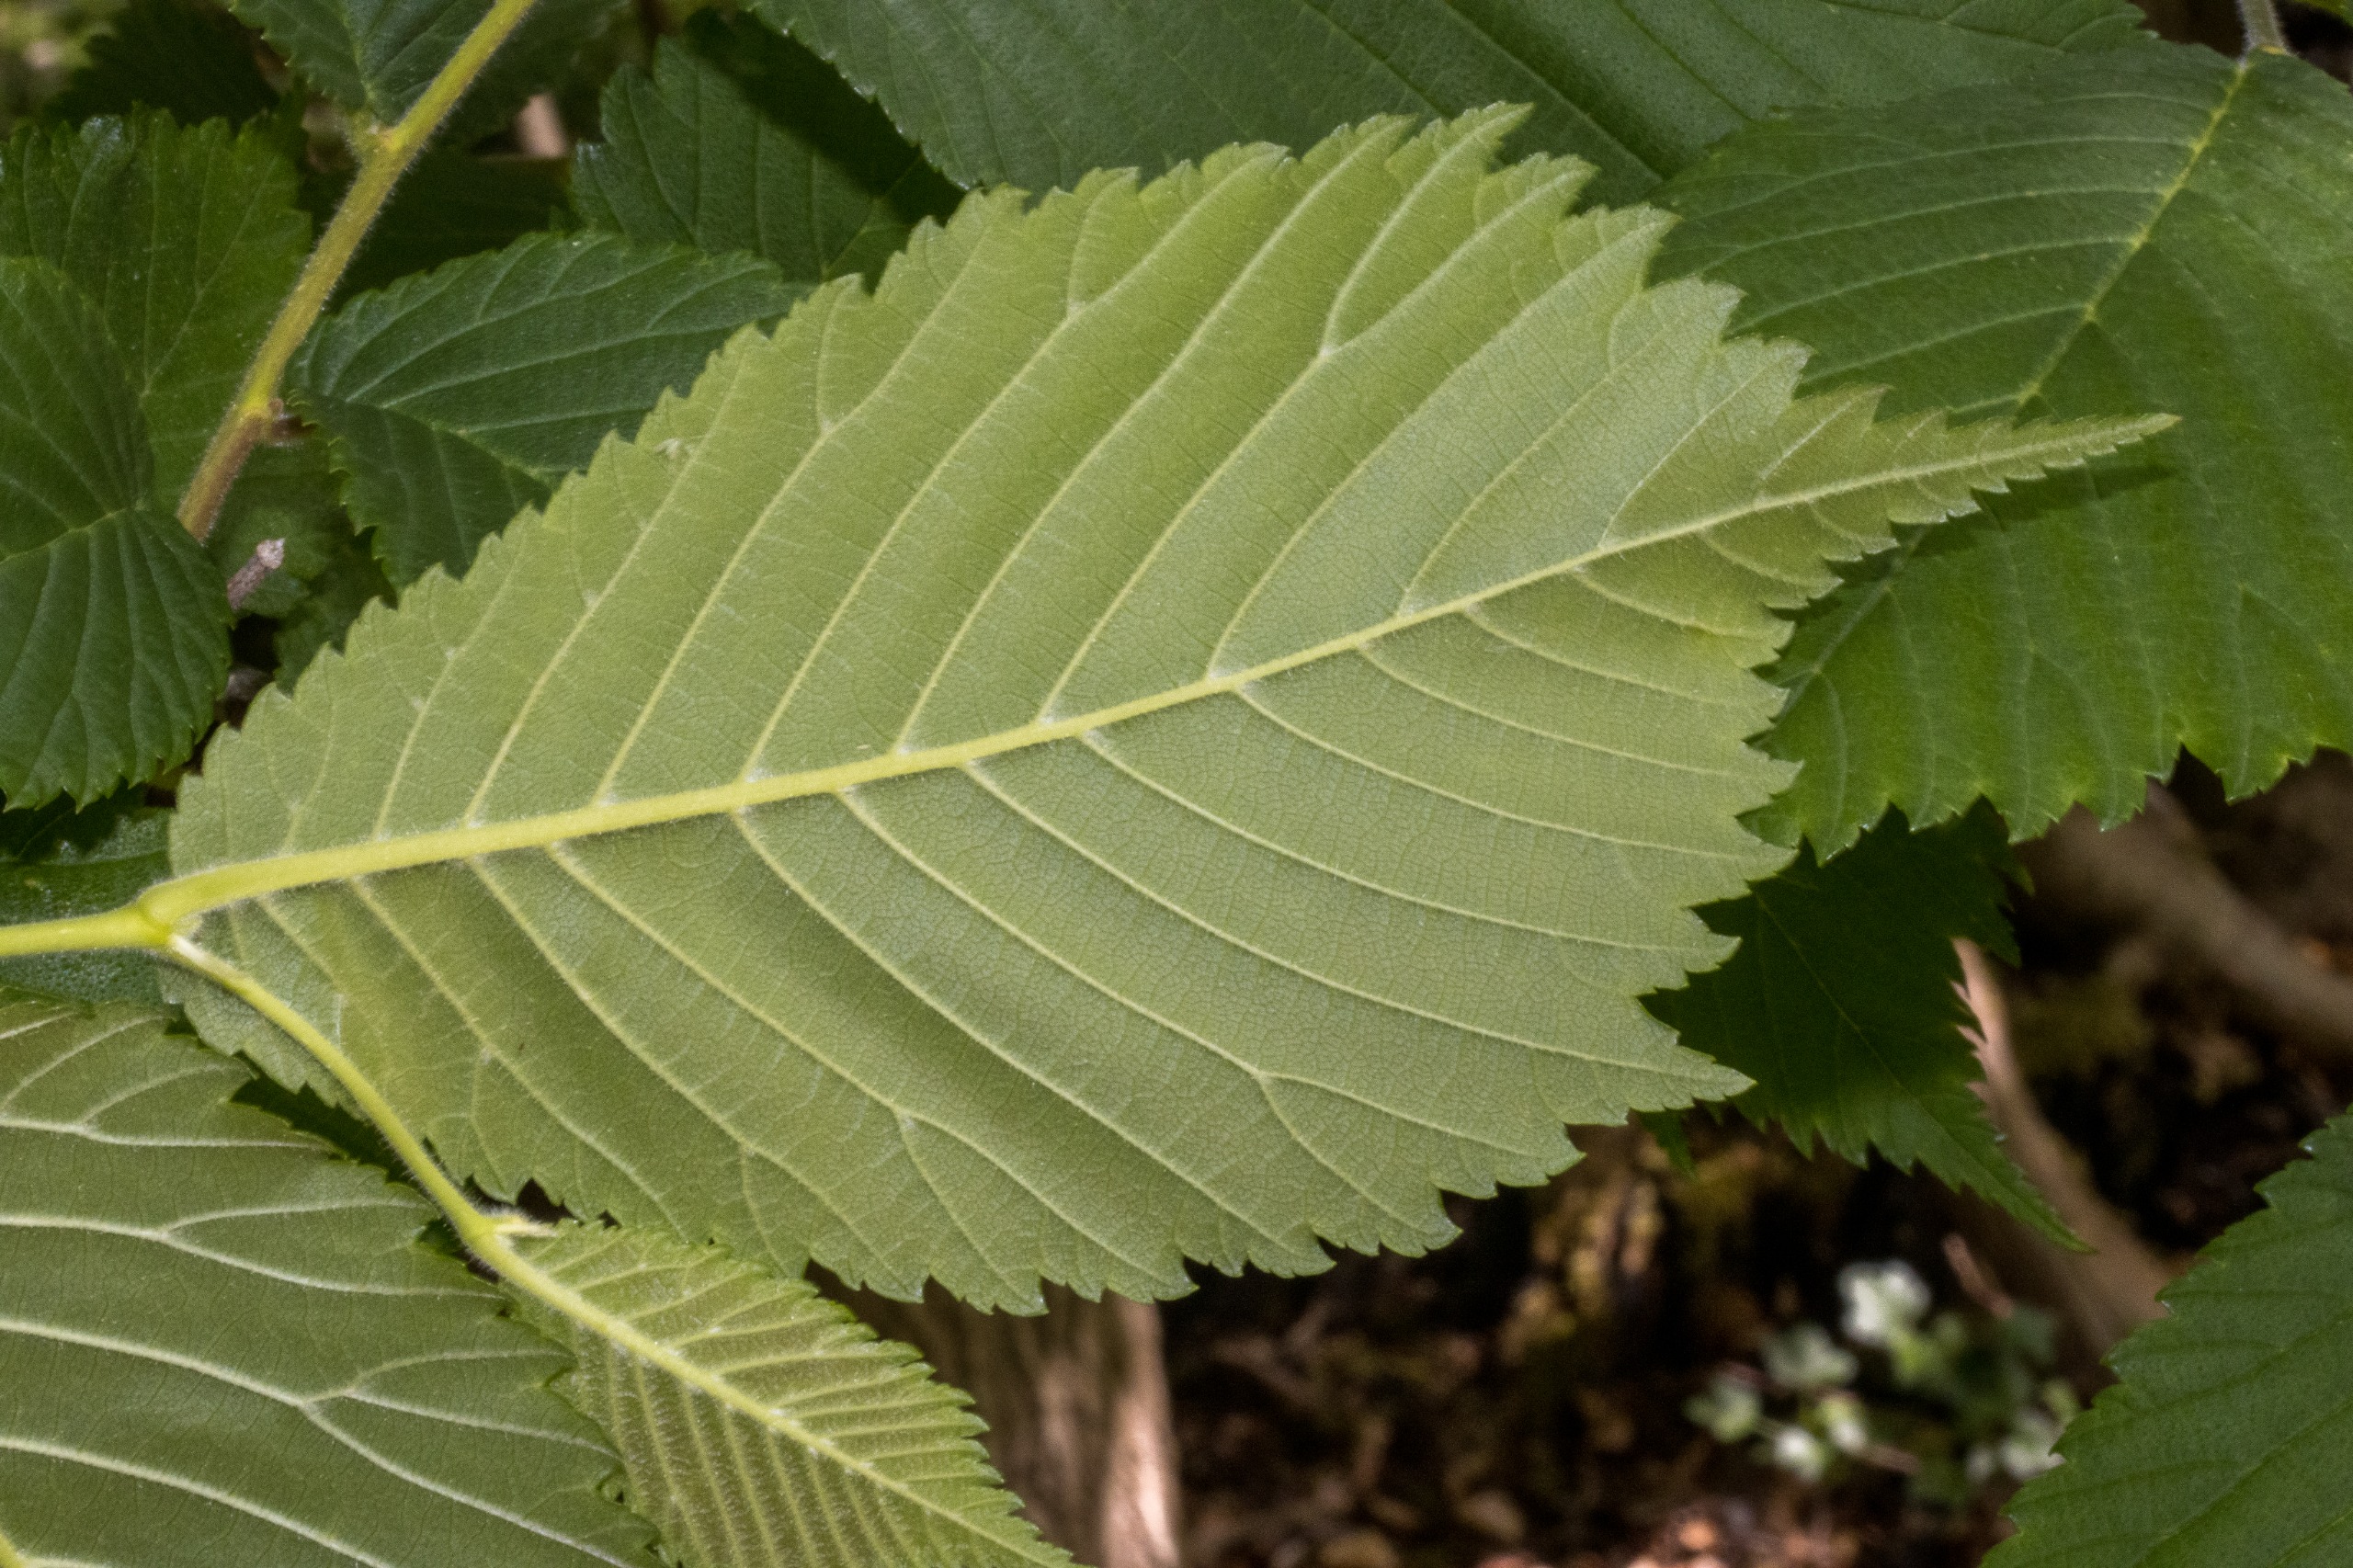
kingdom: Plantae
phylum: Tracheophyta
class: Magnoliopsida
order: Rosales
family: Ulmaceae
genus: Ulmus
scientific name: Ulmus glabra
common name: Skov-elm/storbladet elm
